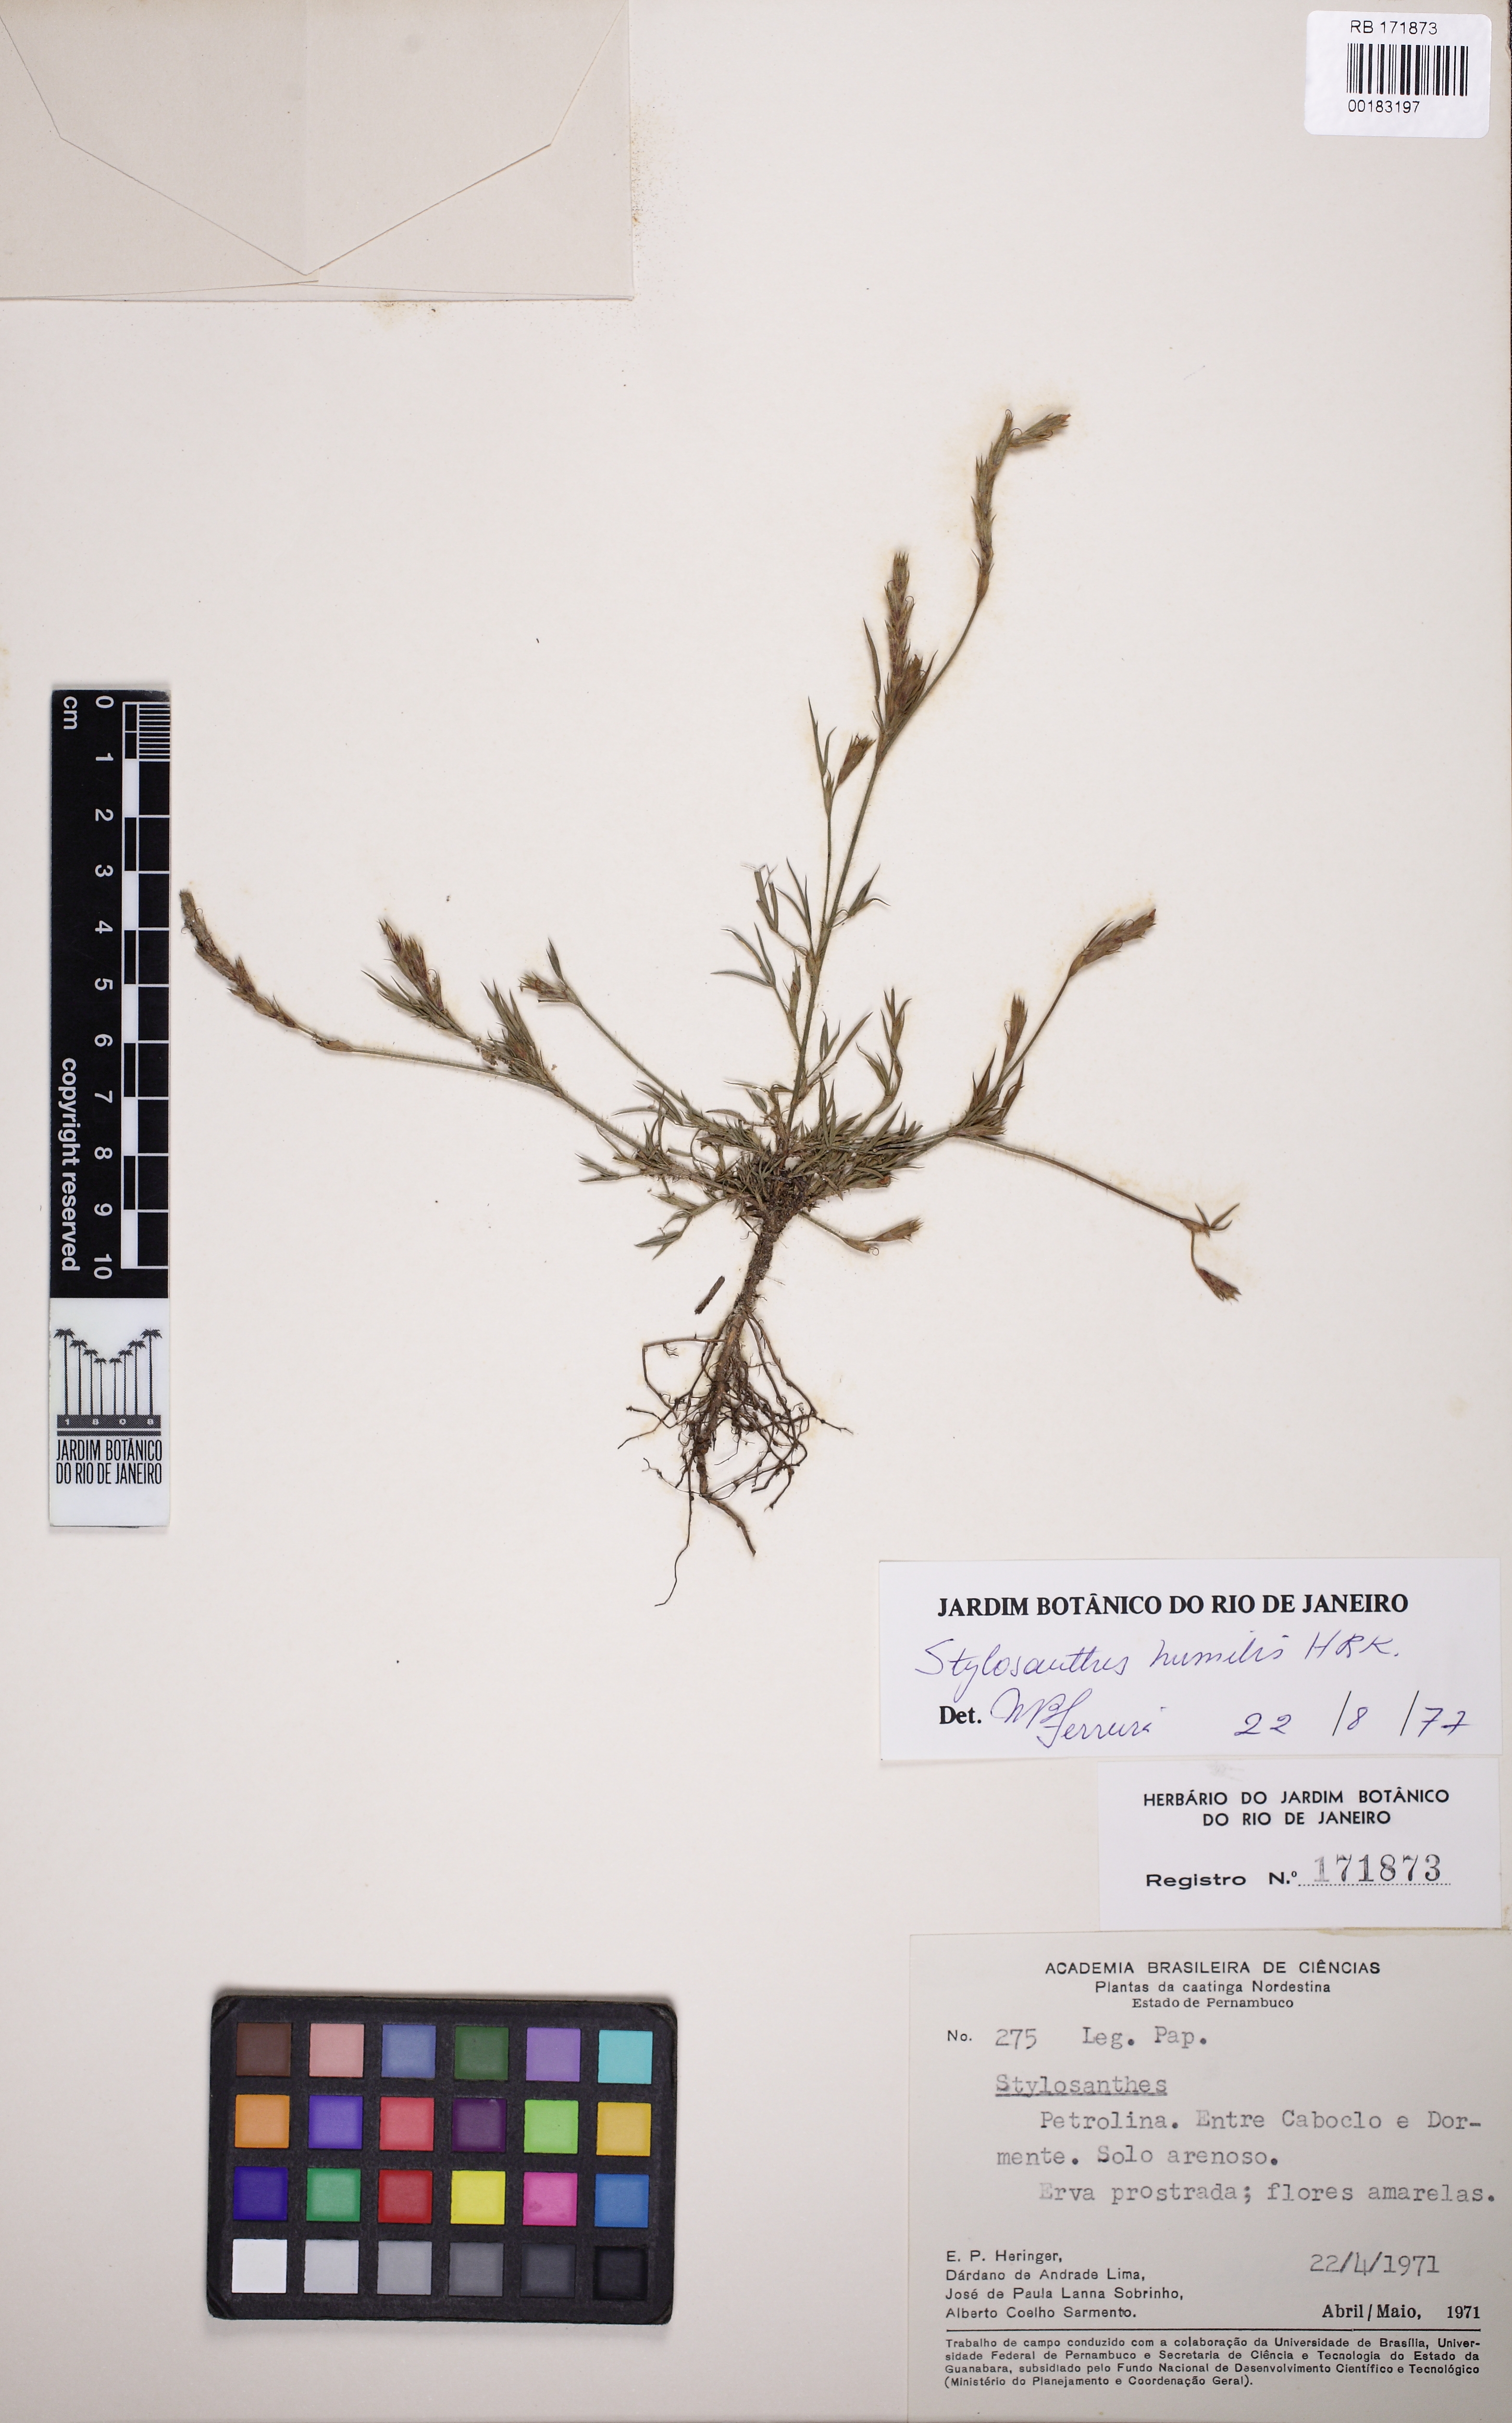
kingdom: Plantae
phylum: Tracheophyta
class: Magnoliopsida
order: Fabales
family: Fabaceae
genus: Stylosanthes
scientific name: Stylosanthes angustifolia
